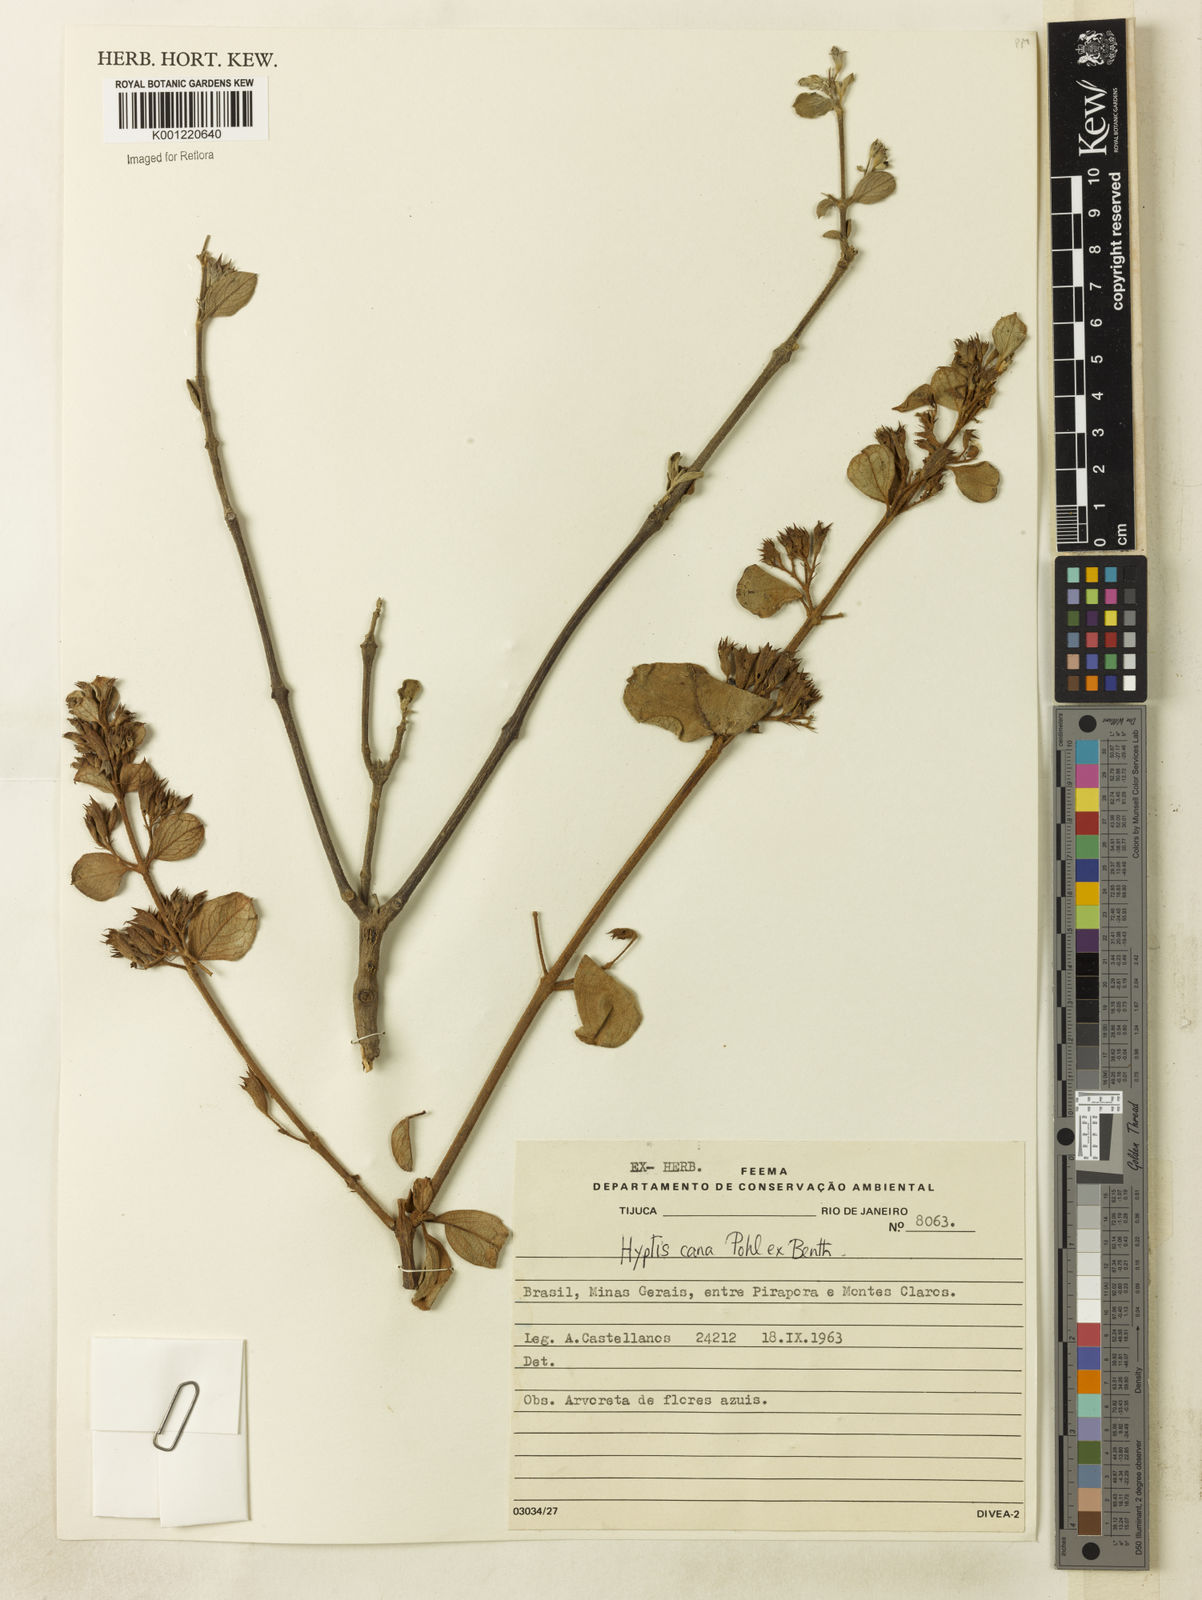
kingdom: Plantae
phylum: Tracheophyta
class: Magnoliopsida
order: Lamiales
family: Lamiaceae
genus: Hyptidendron
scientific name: Hyptidendron canum
